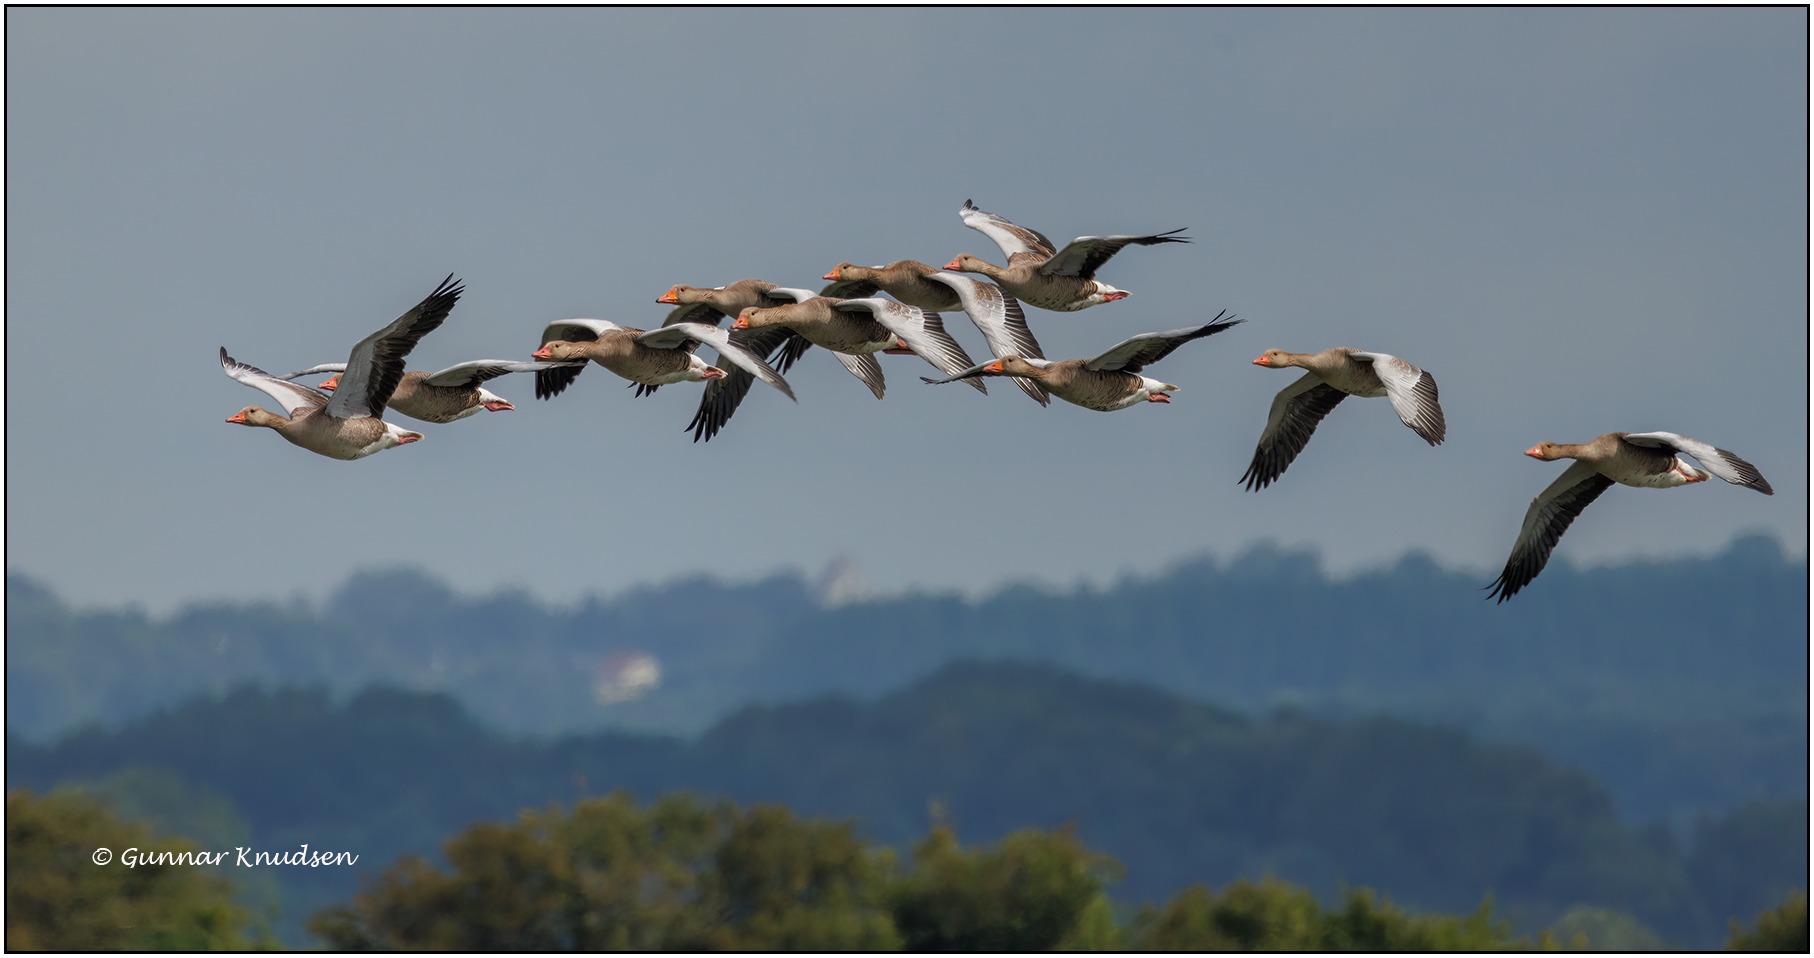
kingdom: Animalia
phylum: Chordata
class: Aves
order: Anseriformes
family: Anatidae
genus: Anser
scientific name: Anser anser
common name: Grågås
